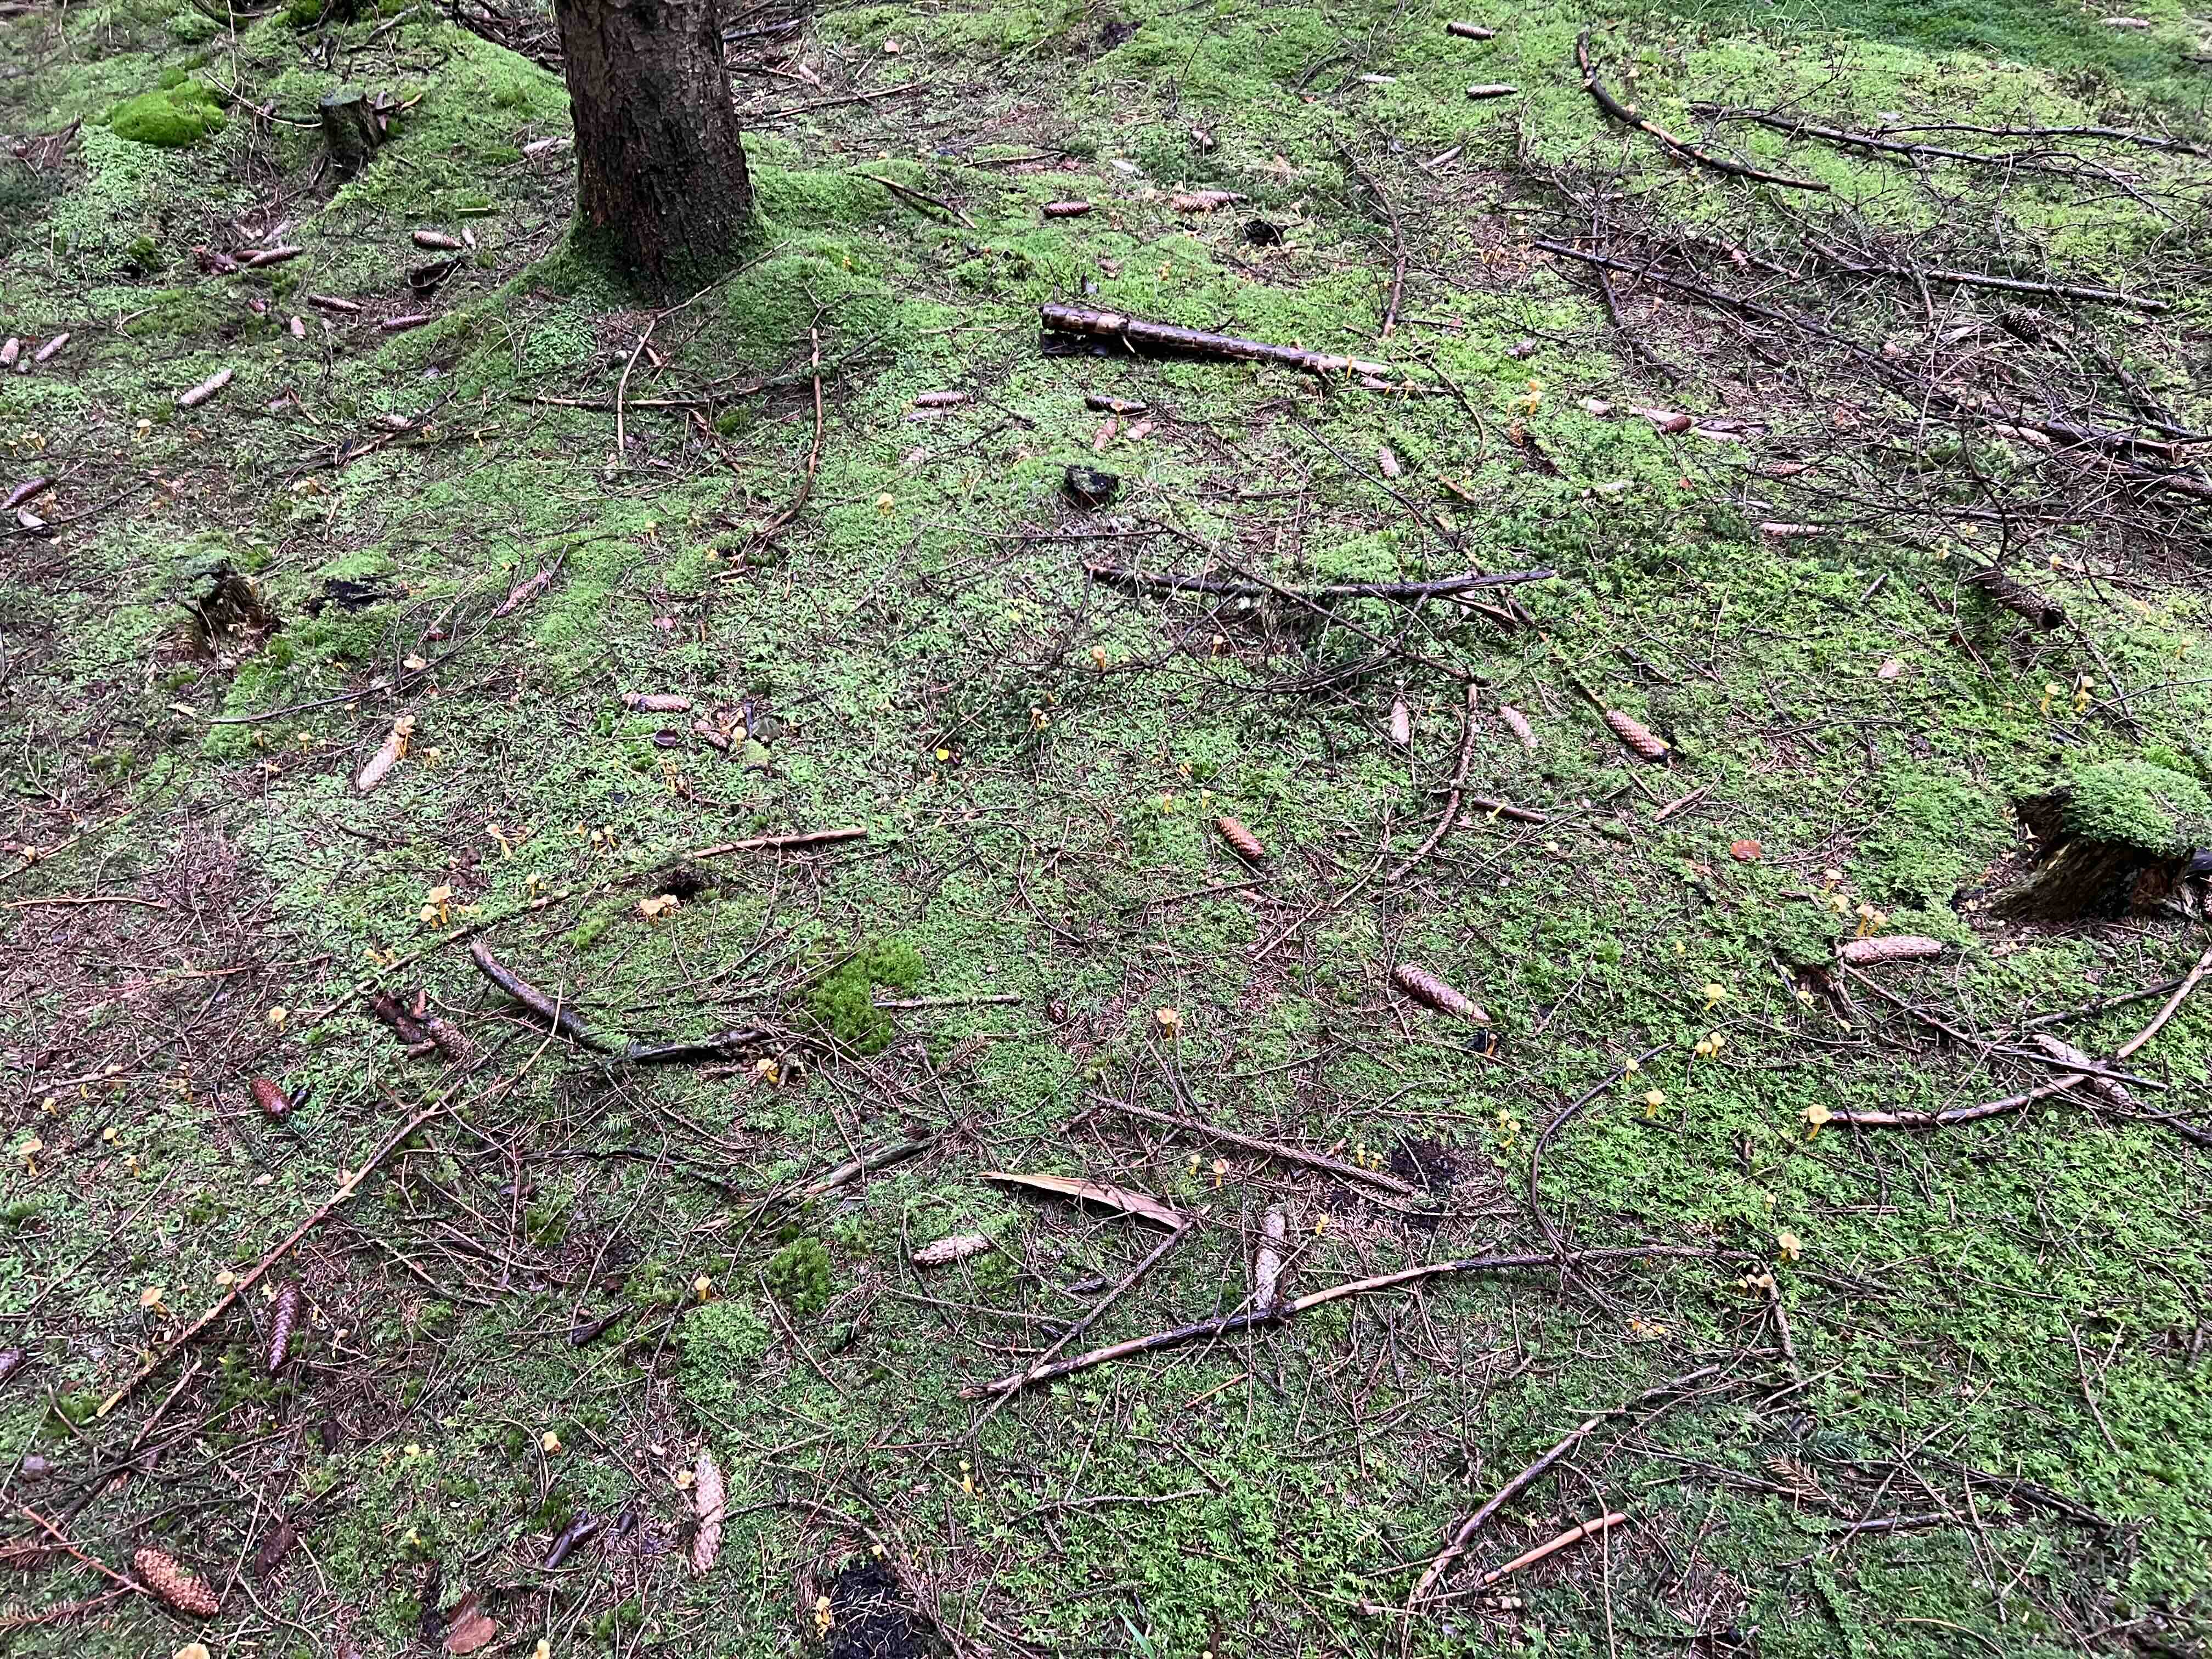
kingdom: Fungi
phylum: Basidiomycota
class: Agaricomycetes
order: Cantharellales
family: Hydnaceae
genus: Craterellus
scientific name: Craterellus tubaeformis
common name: tragt-kantarel
